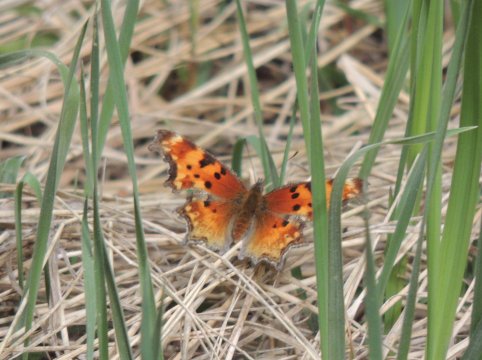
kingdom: Animalia
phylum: Arthropoda
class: Insecta
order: Lepidoptera
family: Nymphalidae
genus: Polygonia
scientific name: Polygonia gracilis
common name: Hoary Comma
